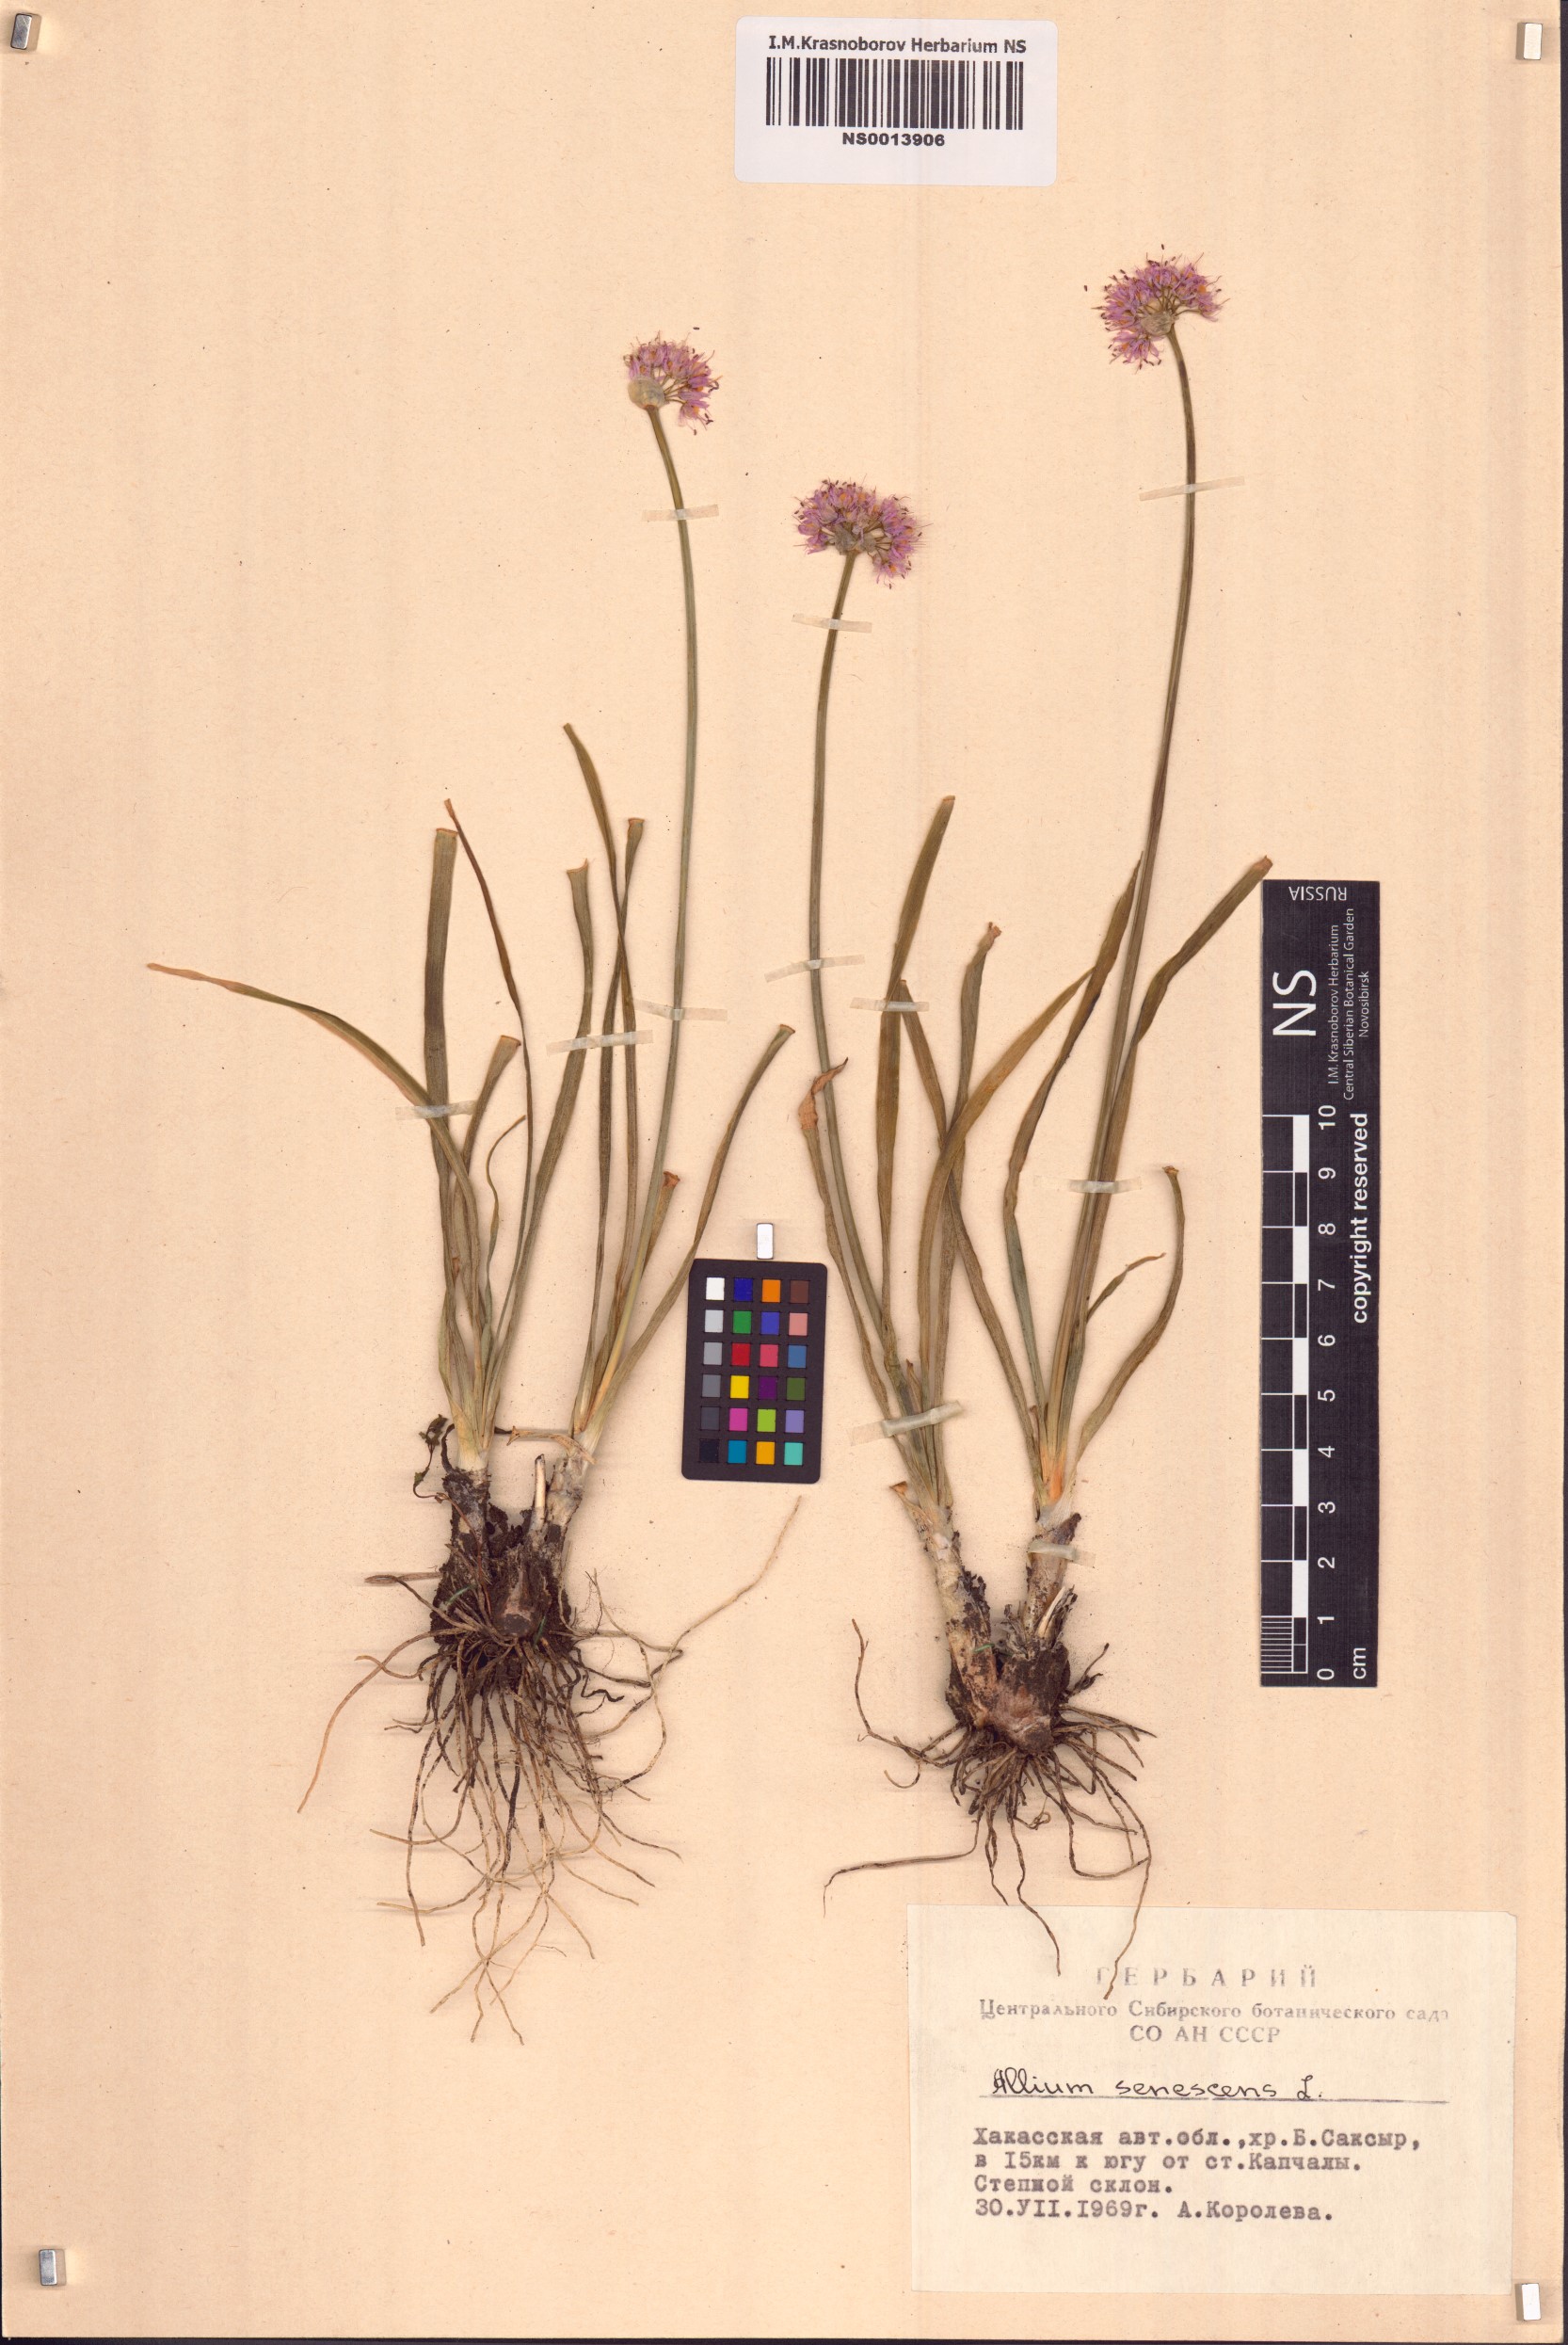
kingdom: Plantae
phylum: Tracheophyta
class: Liliopsida
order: Asparagales
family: Amaryllidaceae
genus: Allium
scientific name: Allium senescens
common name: German garlic
